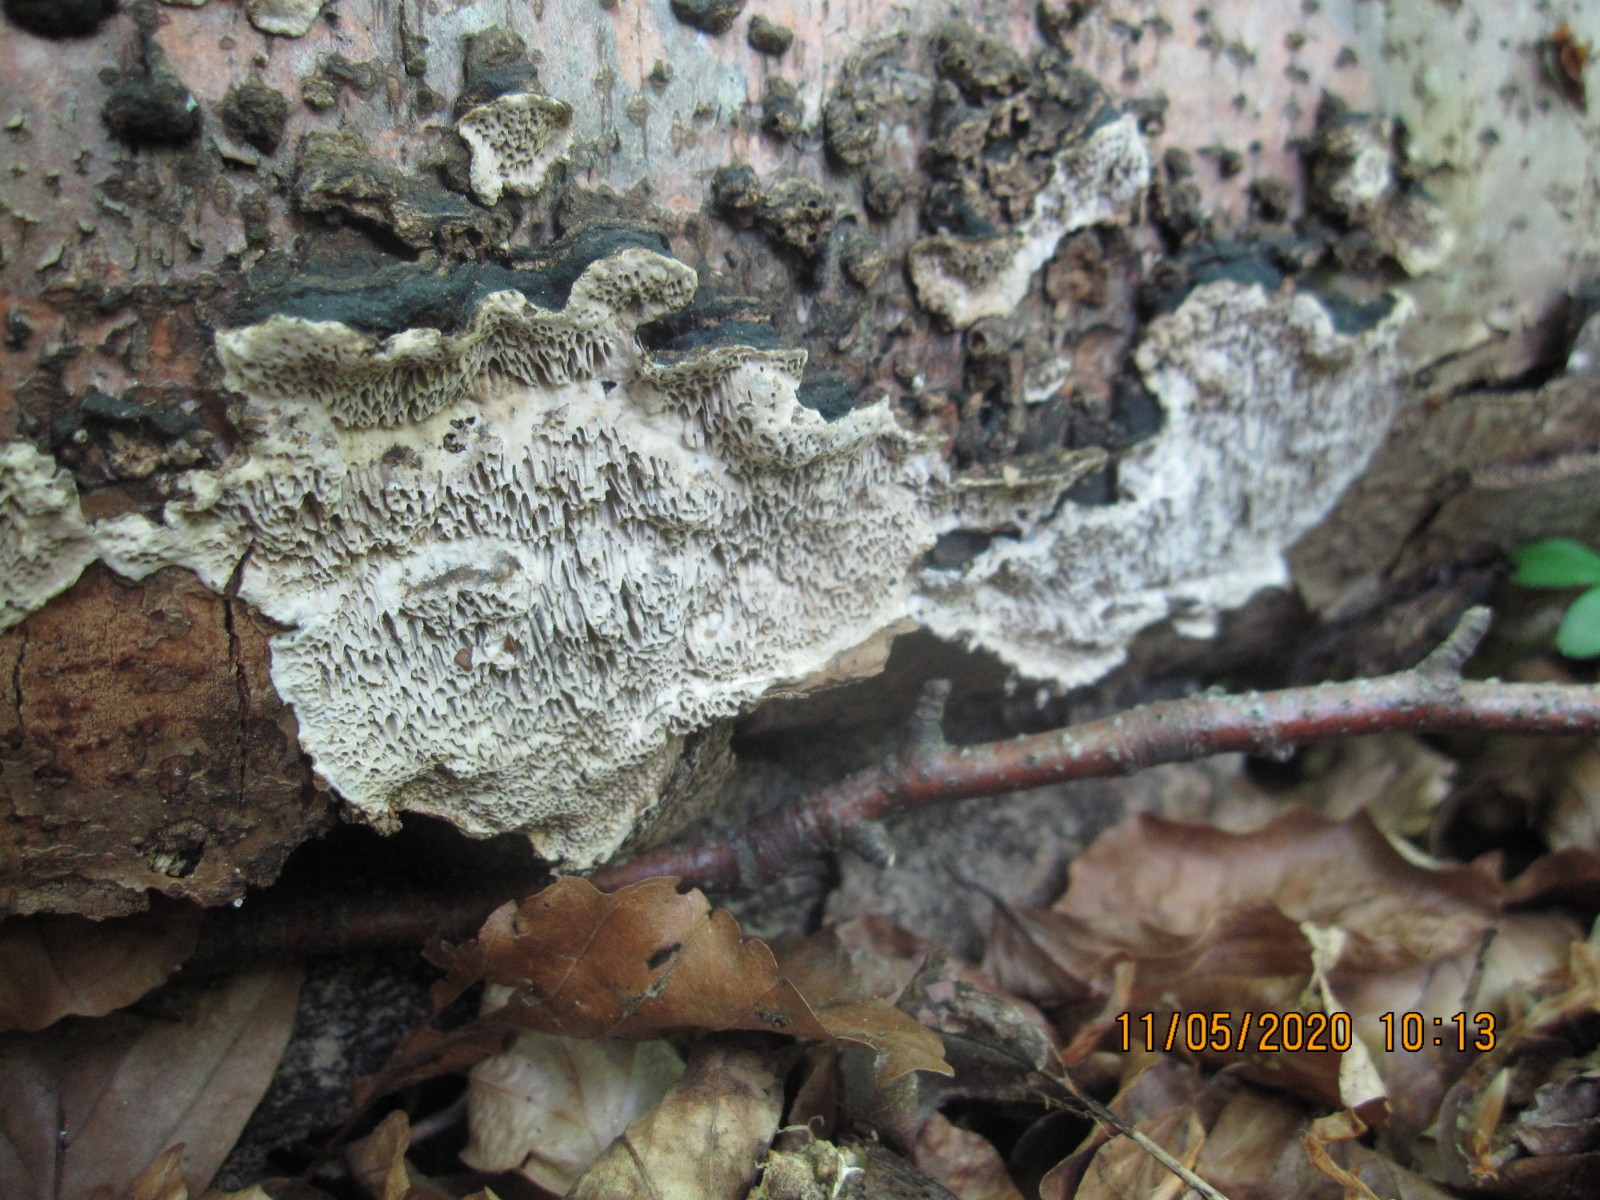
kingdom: Fungi
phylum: Basidiomycota
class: Agaricomycetes
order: Polyporales
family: Polyporaceae
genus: Podofomes
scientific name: Podofomes mollis
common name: blød begporesvamp
